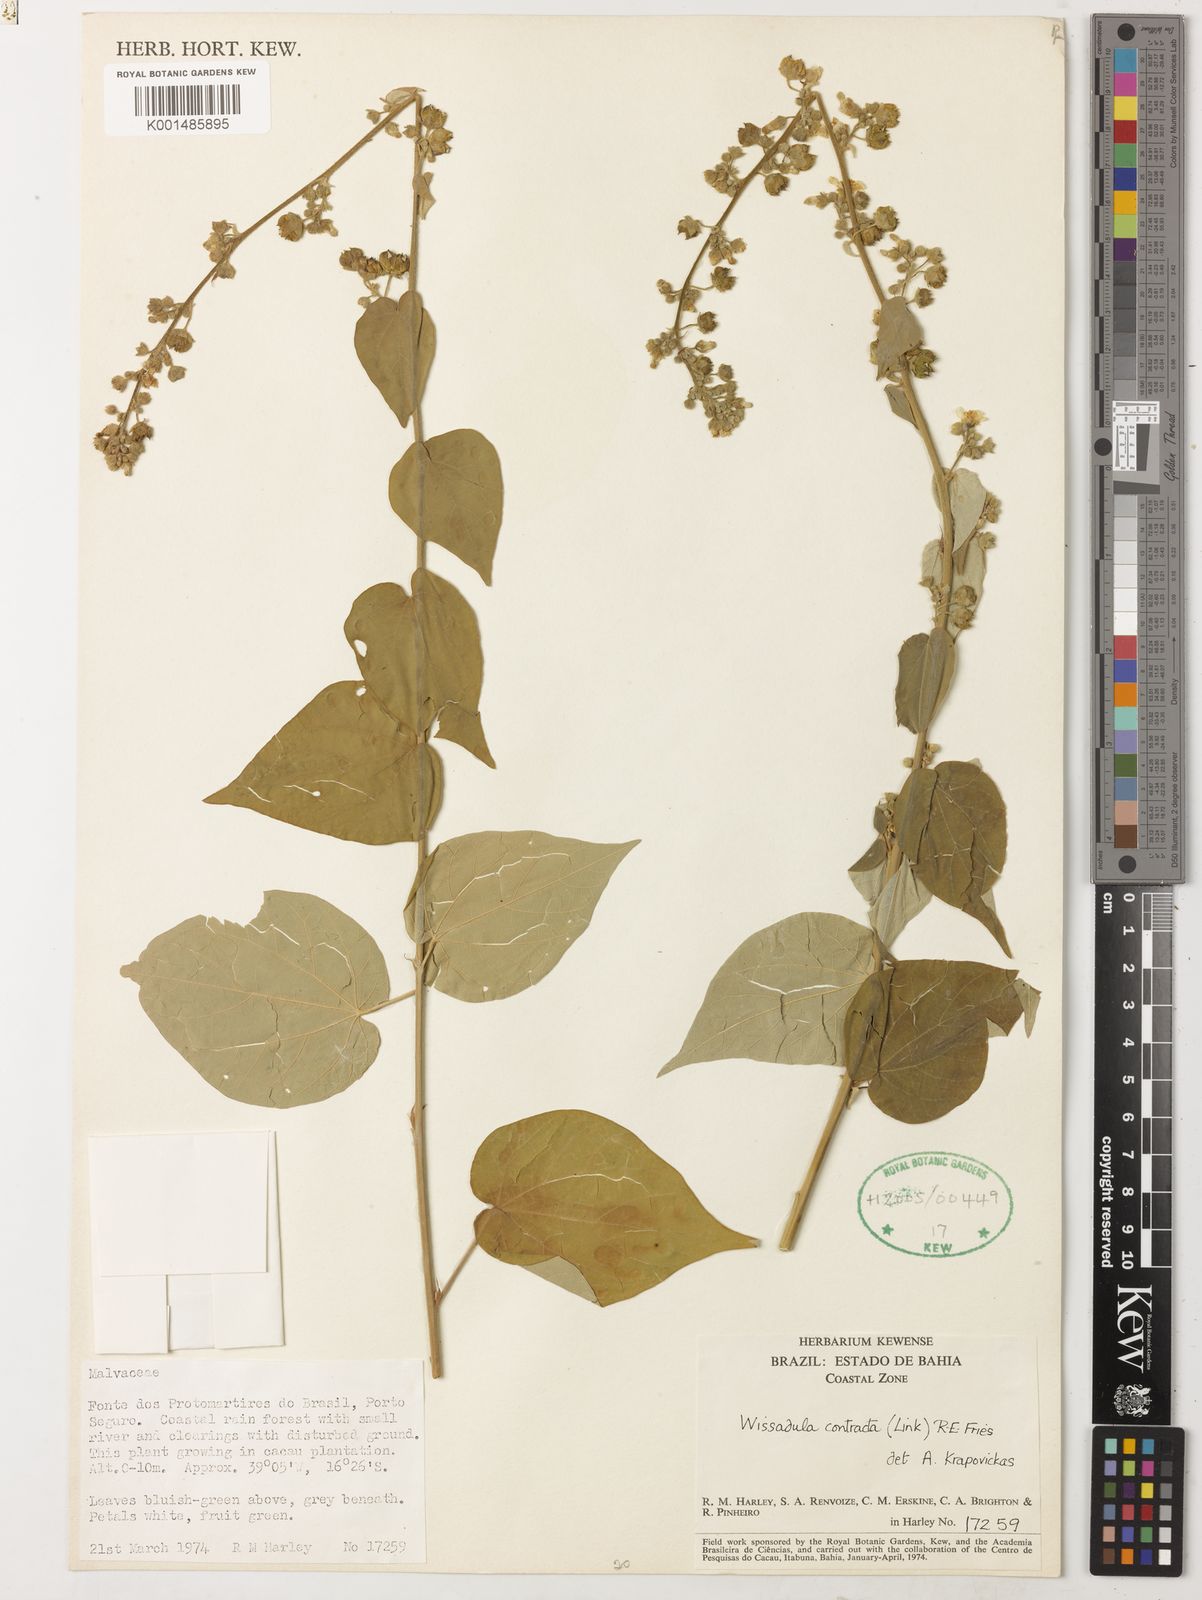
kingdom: Plantae
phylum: Tracheophyta
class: Magnoliopsida
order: Malvales
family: Malvaceae
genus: Wissadula
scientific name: Wissadula contracta
